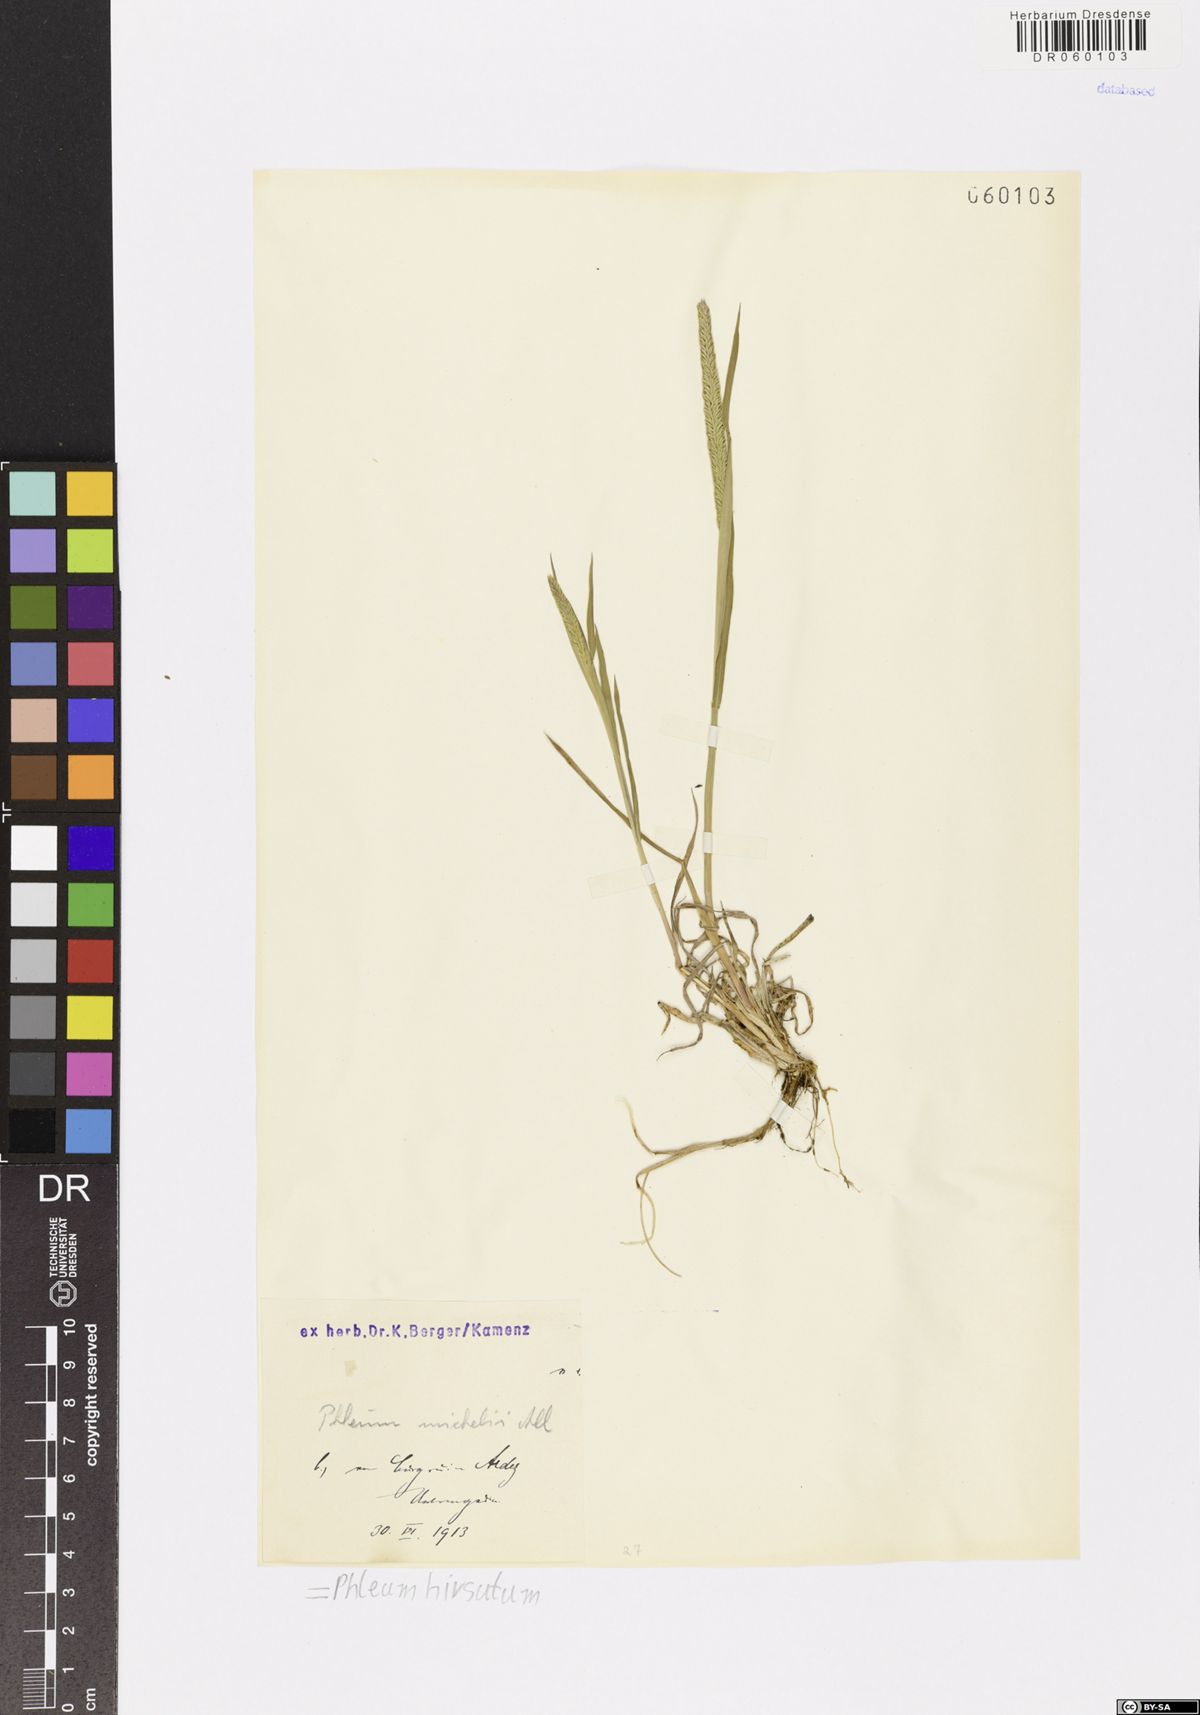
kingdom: Plantae
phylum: Tracheophyta
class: Liliopsida
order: Poales
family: Poaceae
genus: Phleum
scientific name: Phleum hirsutum
